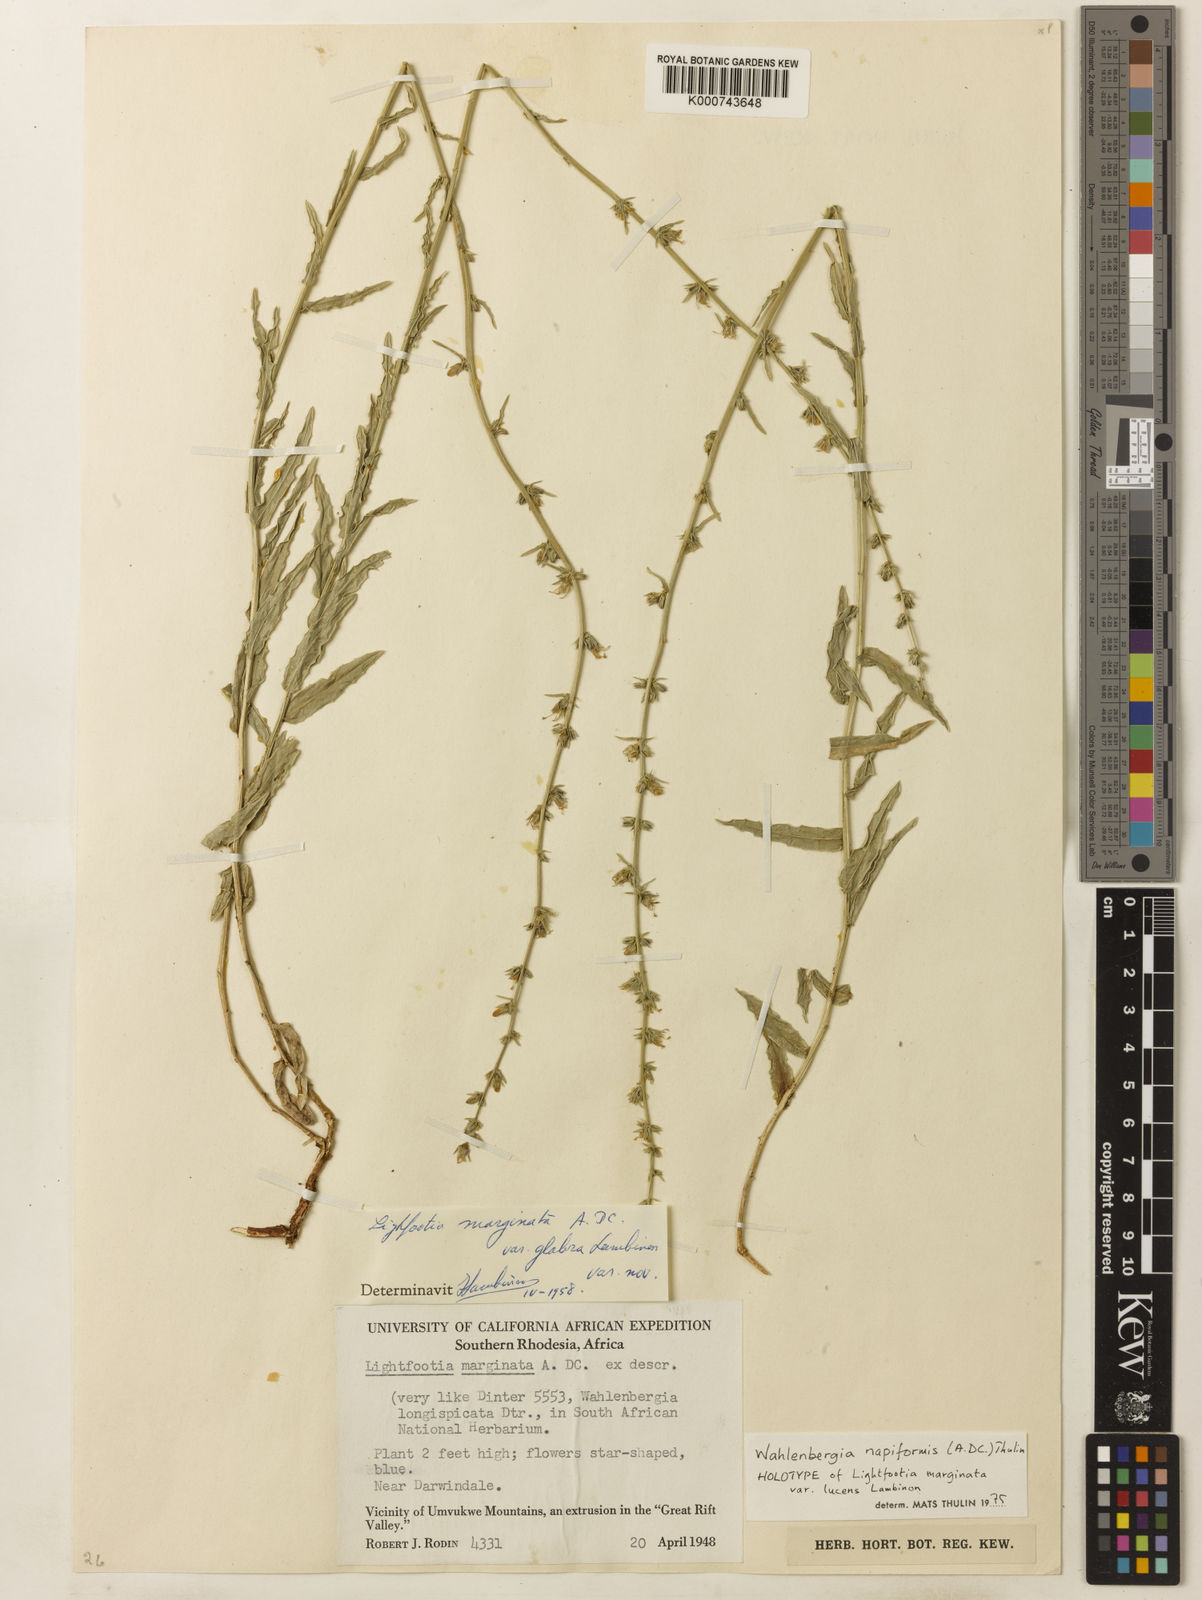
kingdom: Plantae
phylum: Tracheophyta
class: Magnoliopsida
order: Asterales
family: Campanulaceae
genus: Wahlenbergia
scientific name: Wahlenbergia napiformis
